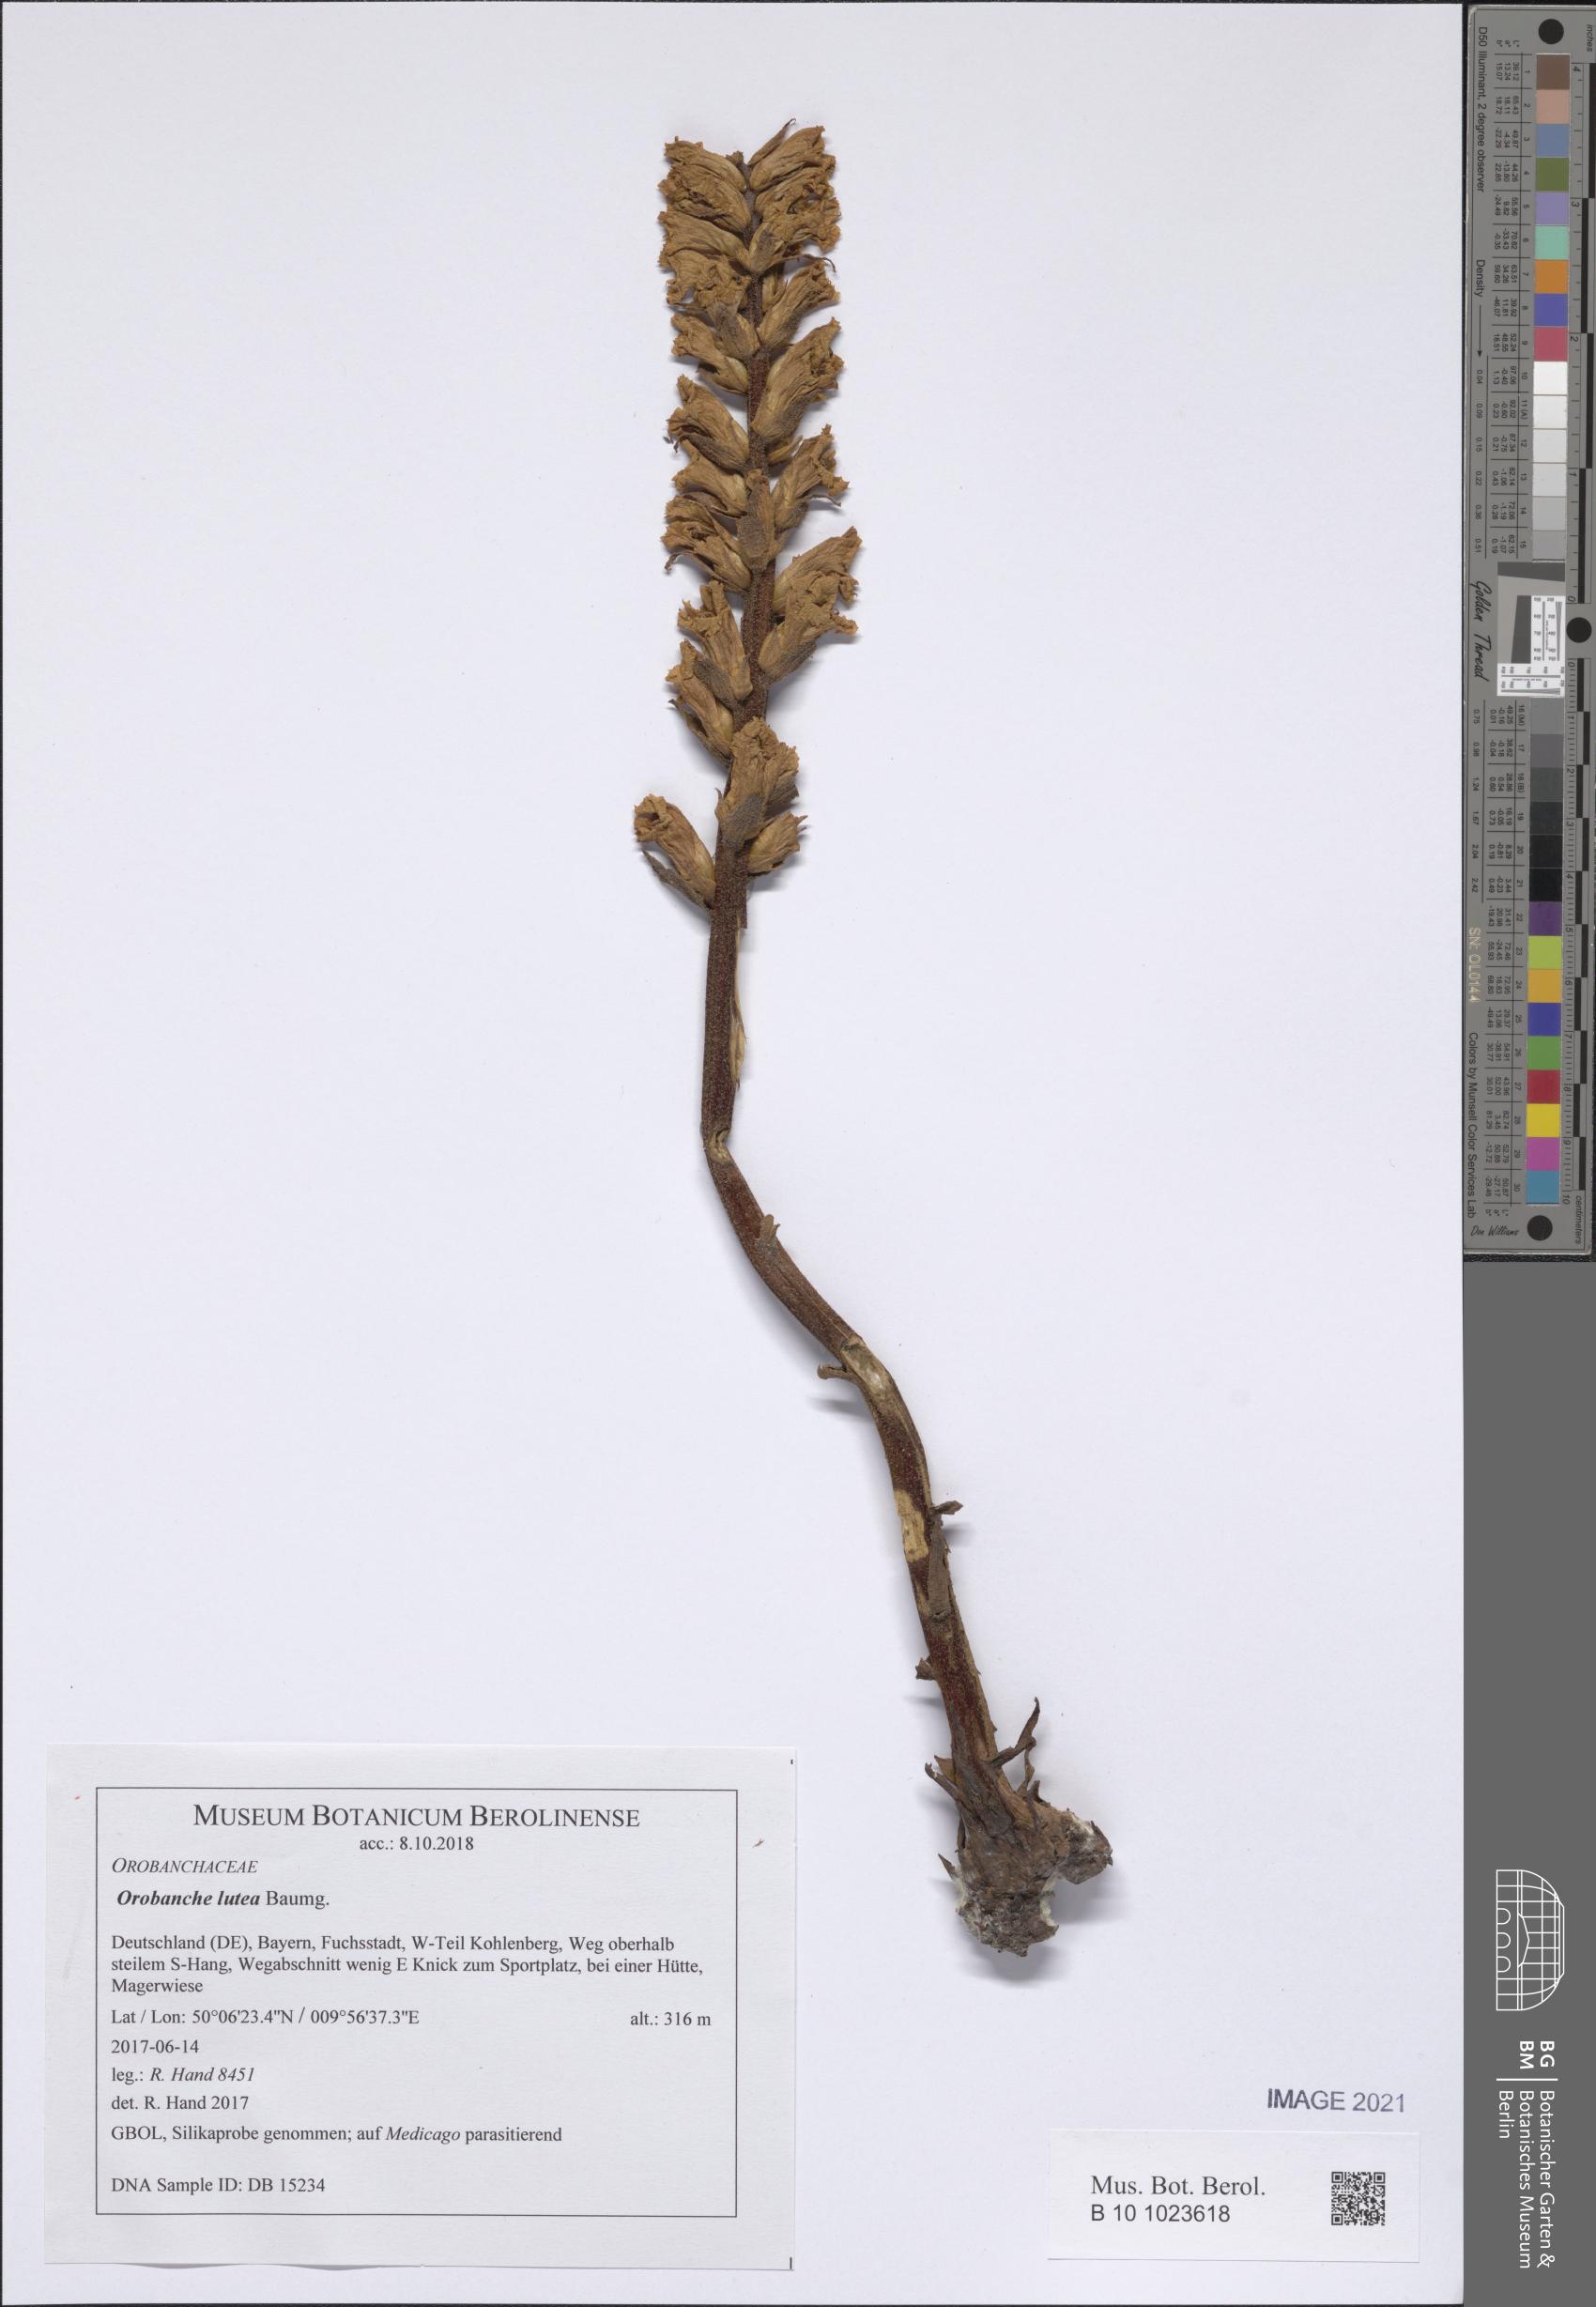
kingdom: Plantae
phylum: Tracheophyta
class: Magnoliopsida
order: Lamiales
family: Orobanchaceae
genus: Orobanche
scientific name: Orobanche lutea
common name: Yellow broomrape
